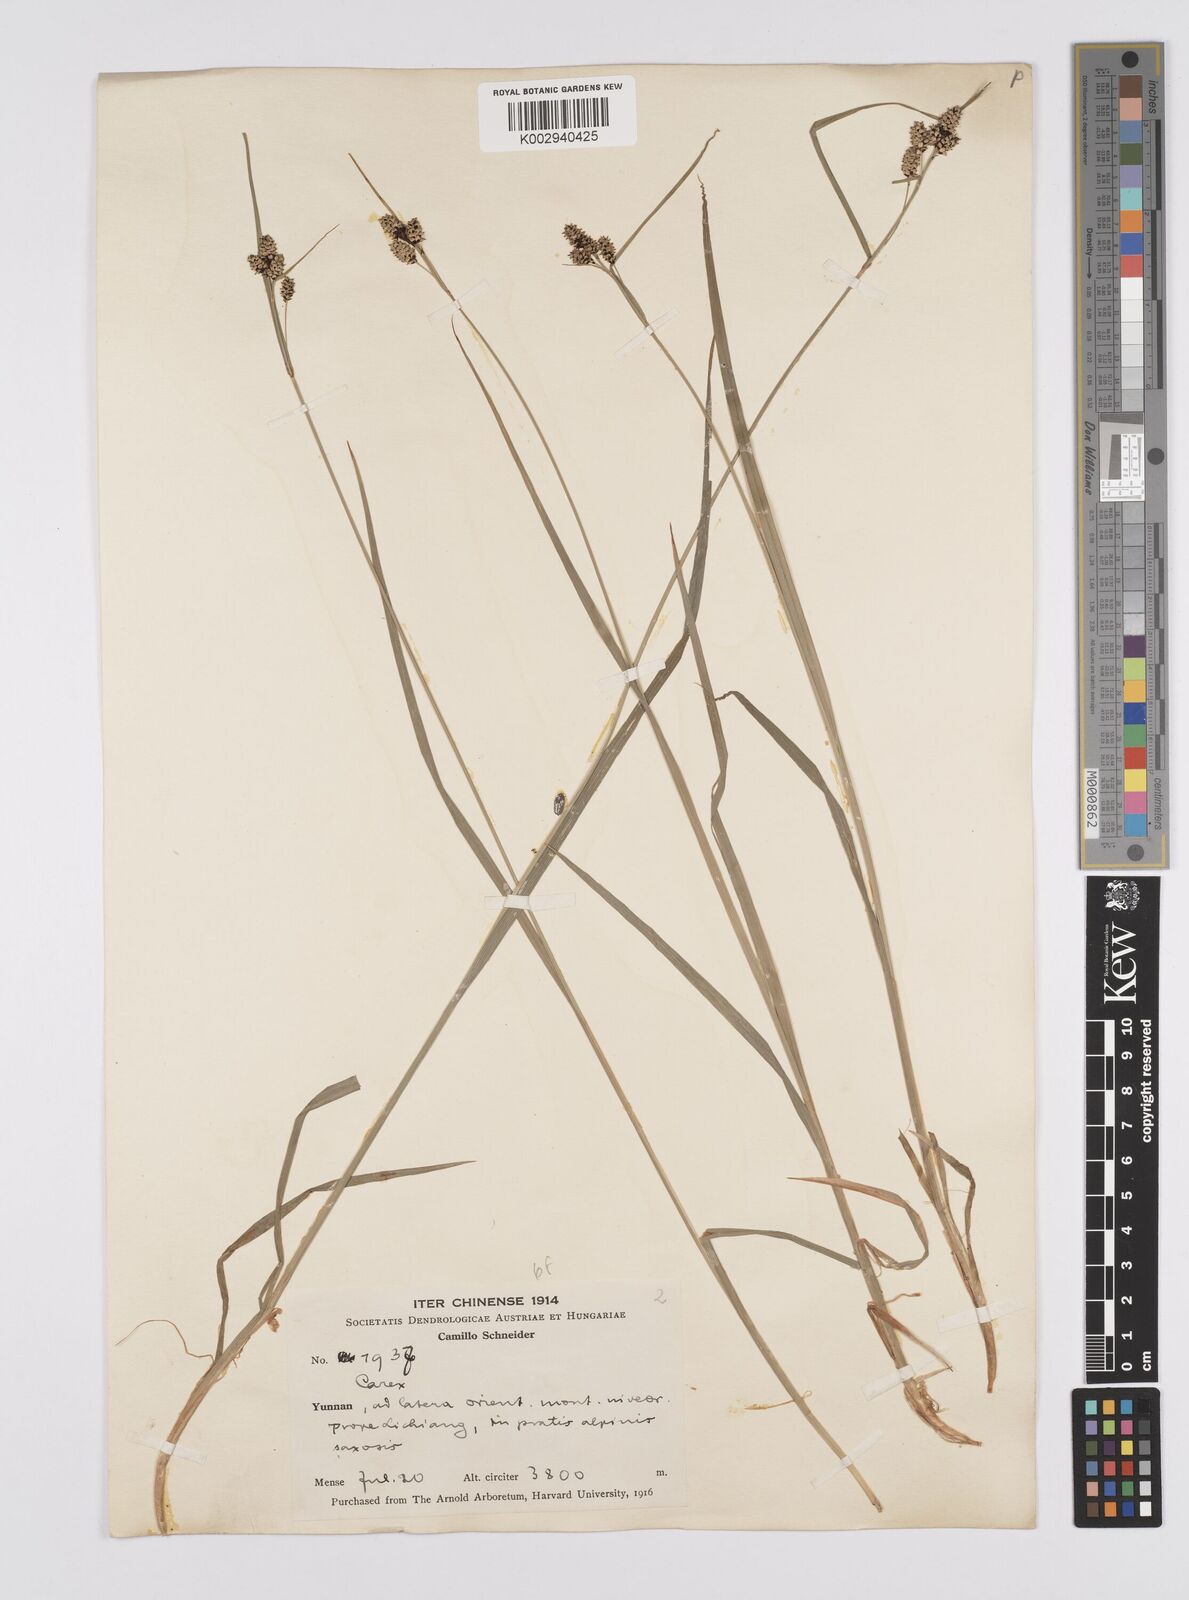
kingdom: Plantae
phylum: Tracheophyta
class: Liliopsida
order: Poales
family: Cyperaceae
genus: Carex
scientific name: Carex lehmannii
